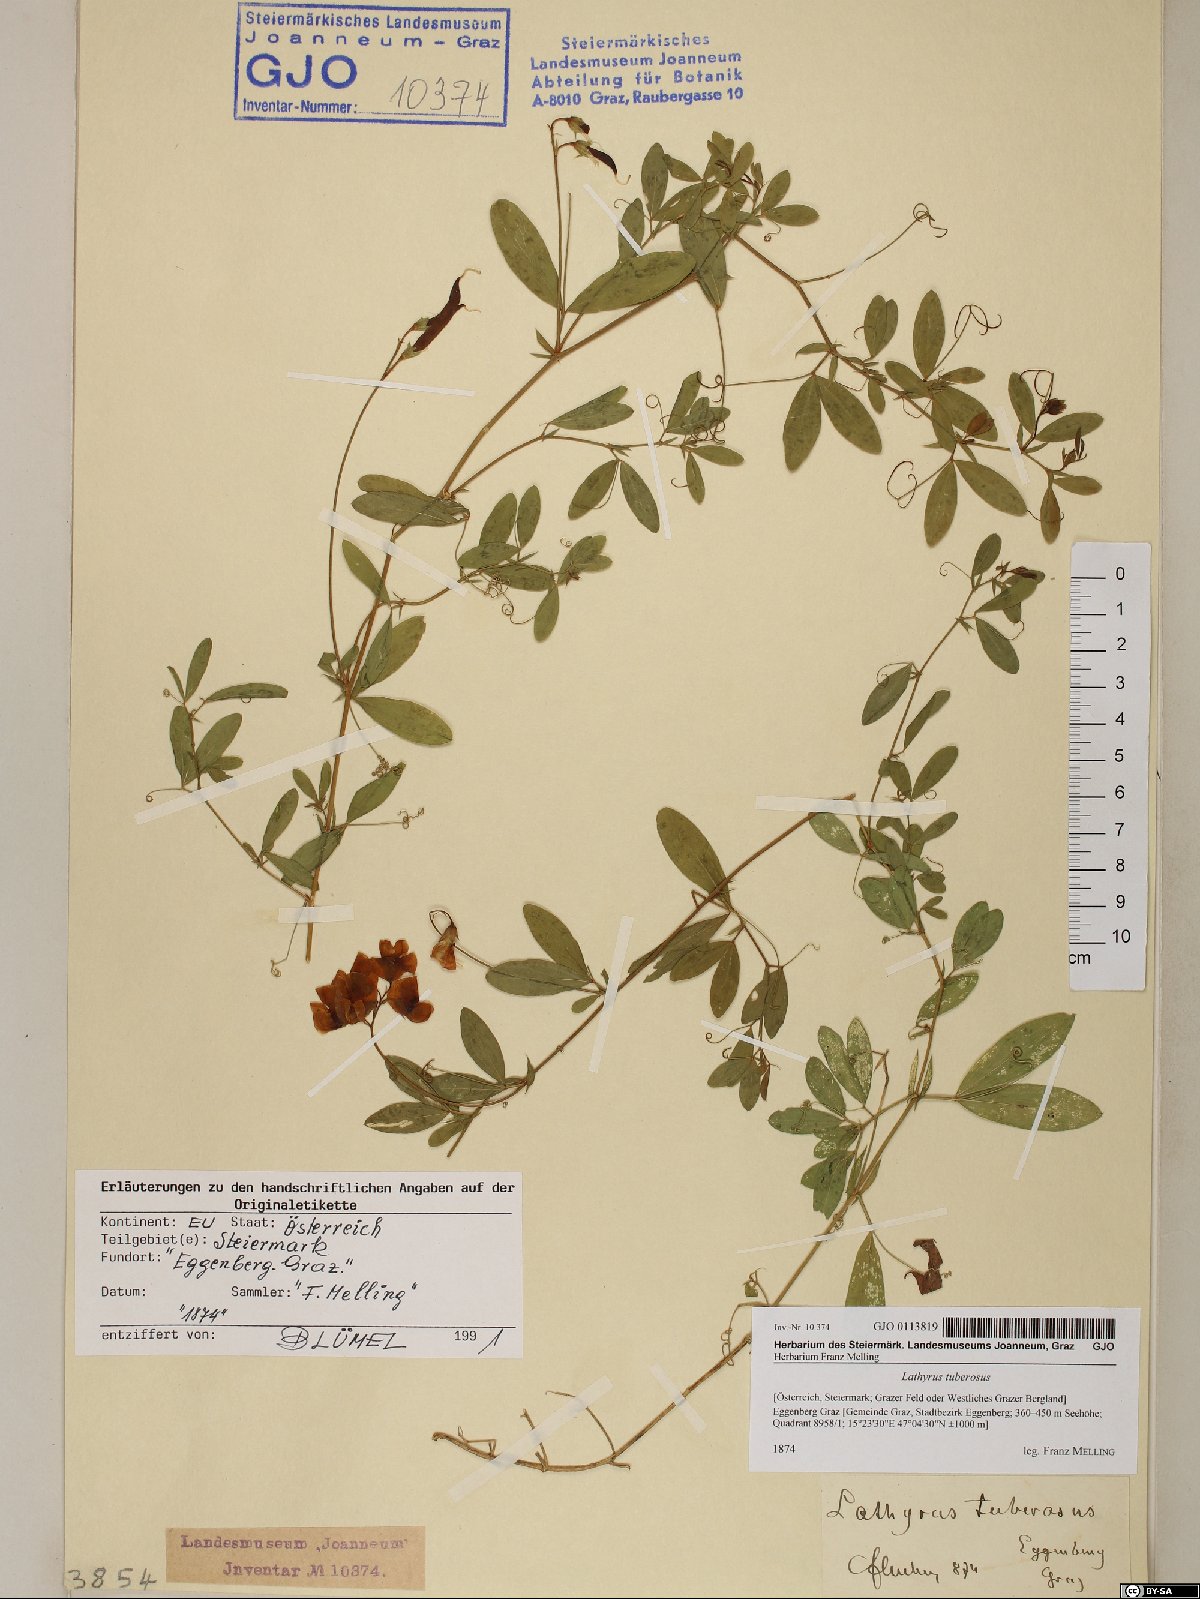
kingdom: Plantae
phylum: Tracheophyta
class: Magnoliopsida
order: Fabales
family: Fabaceae
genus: Lathyrus
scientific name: Lathyrus tuberosus
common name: Tuberous pea
